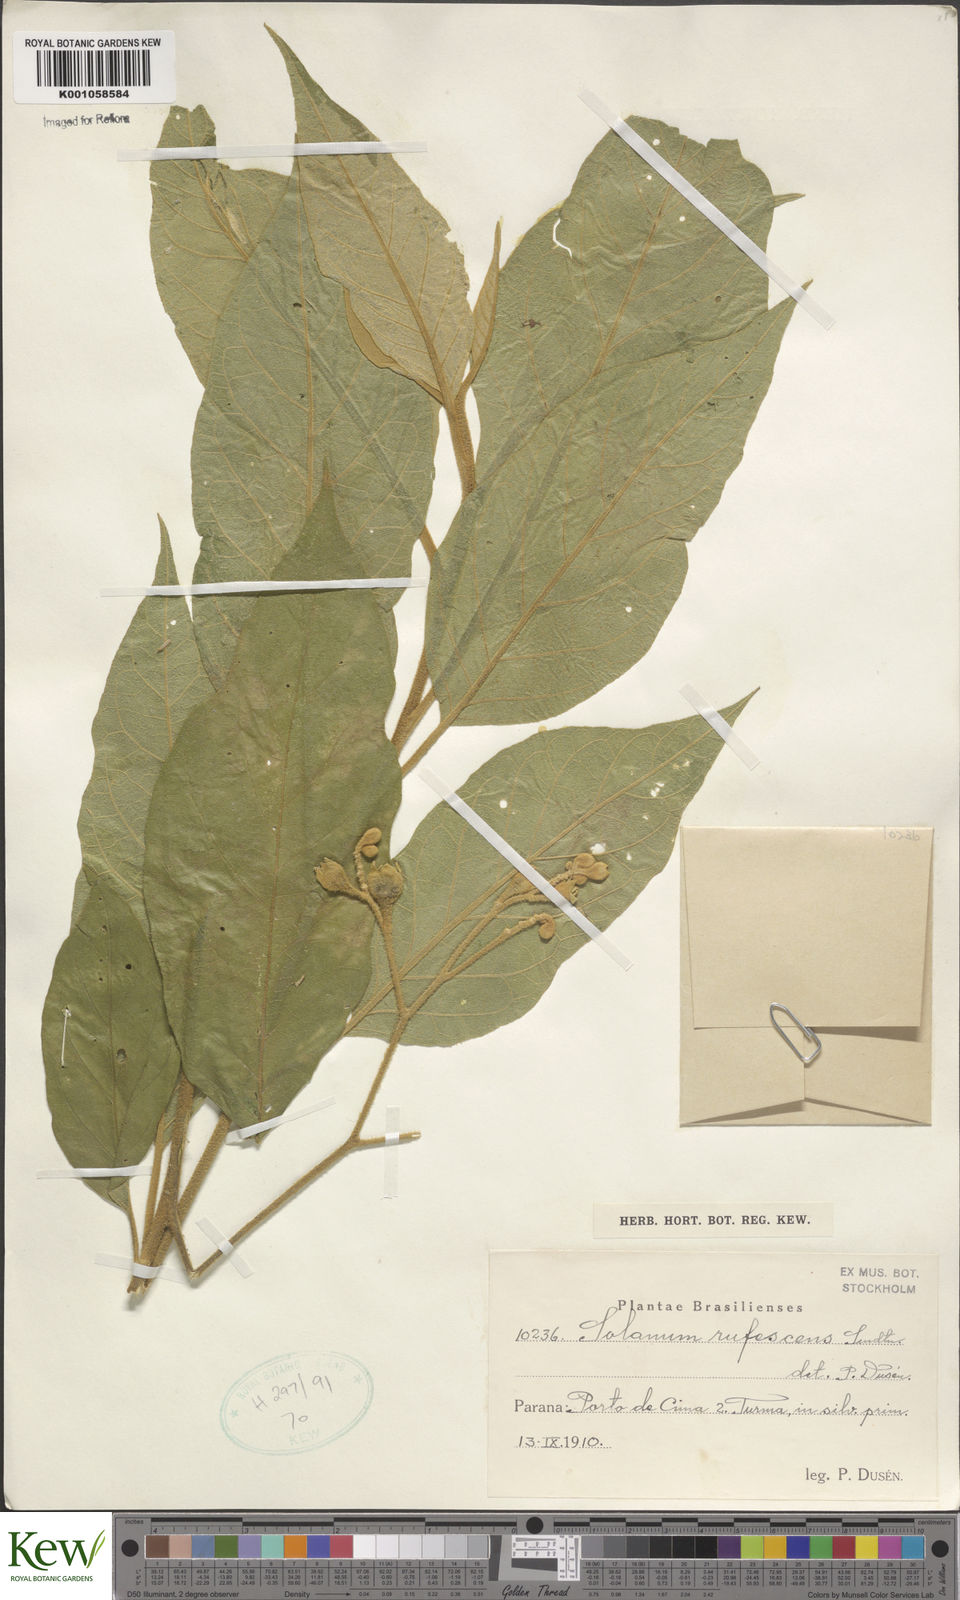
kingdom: Plantae
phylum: Tracheophyta
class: Magnoliopsida
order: Solanales
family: Solanaceae
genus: Solanum
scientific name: Solanum rufescens
